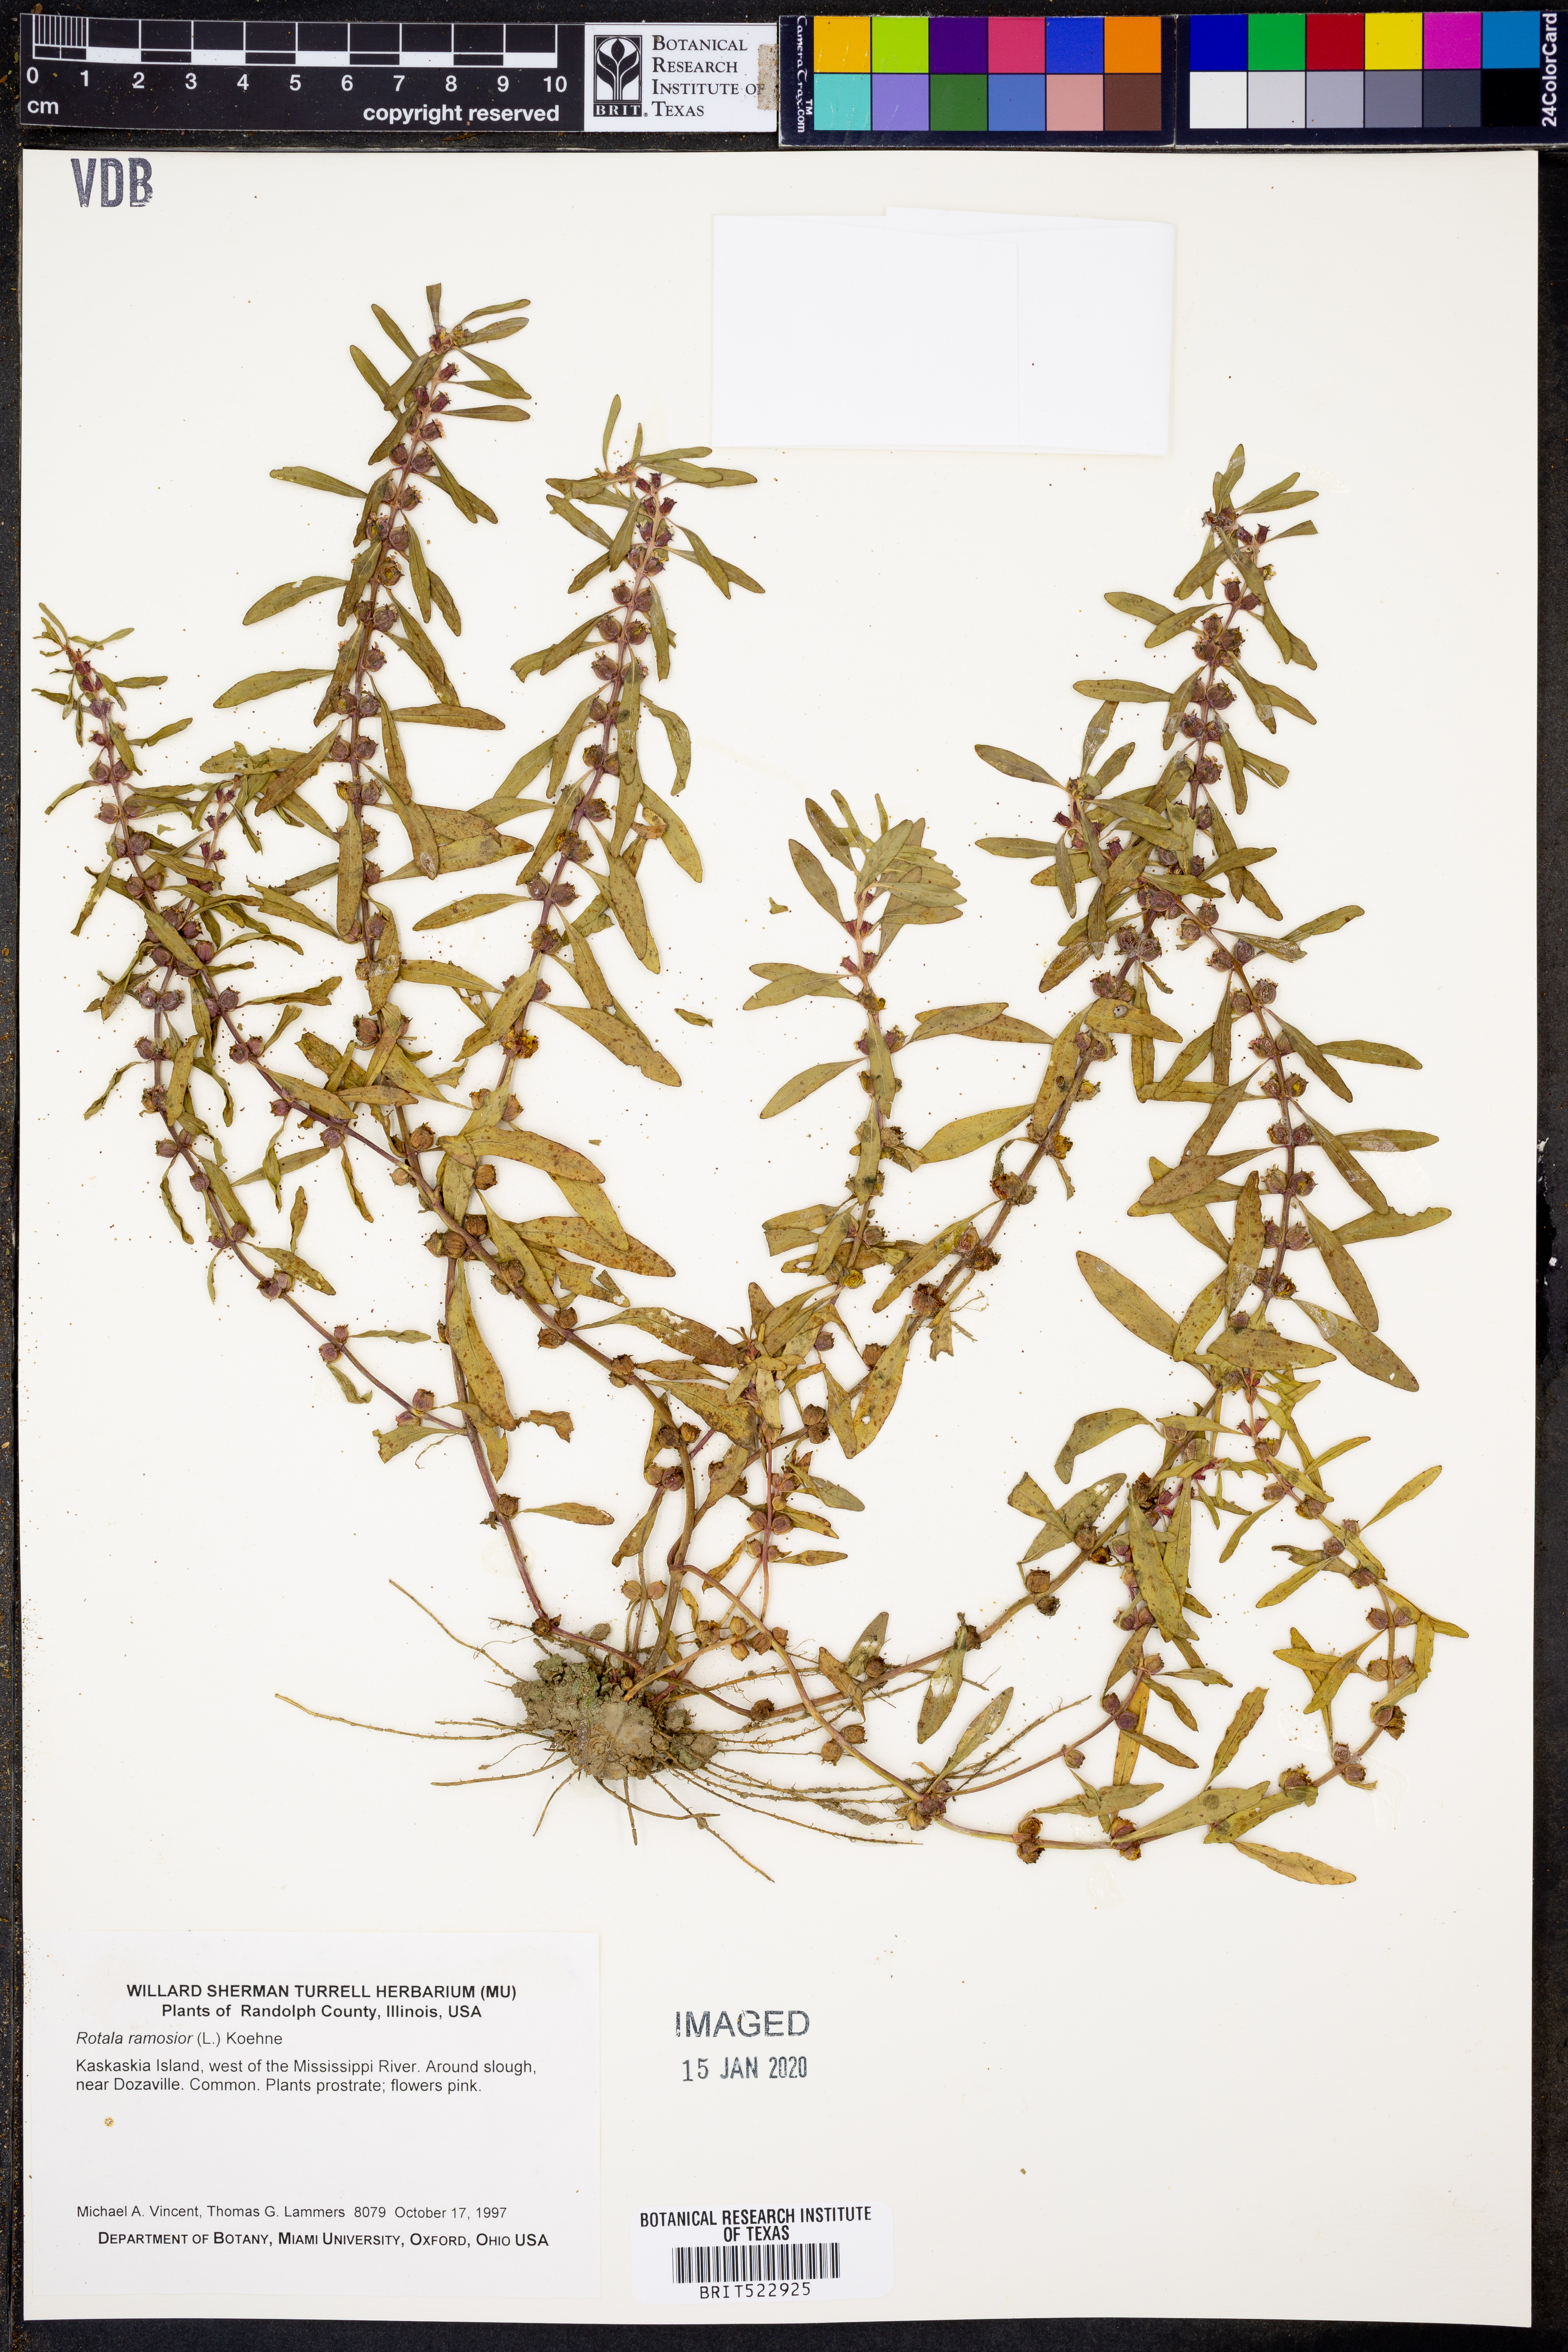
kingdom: Plantae
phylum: Tracheophyta
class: Magnoliopsida
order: Myrtales
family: Lythraceae
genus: Rotala
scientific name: Rotala ramosior
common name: Lowland rotala
